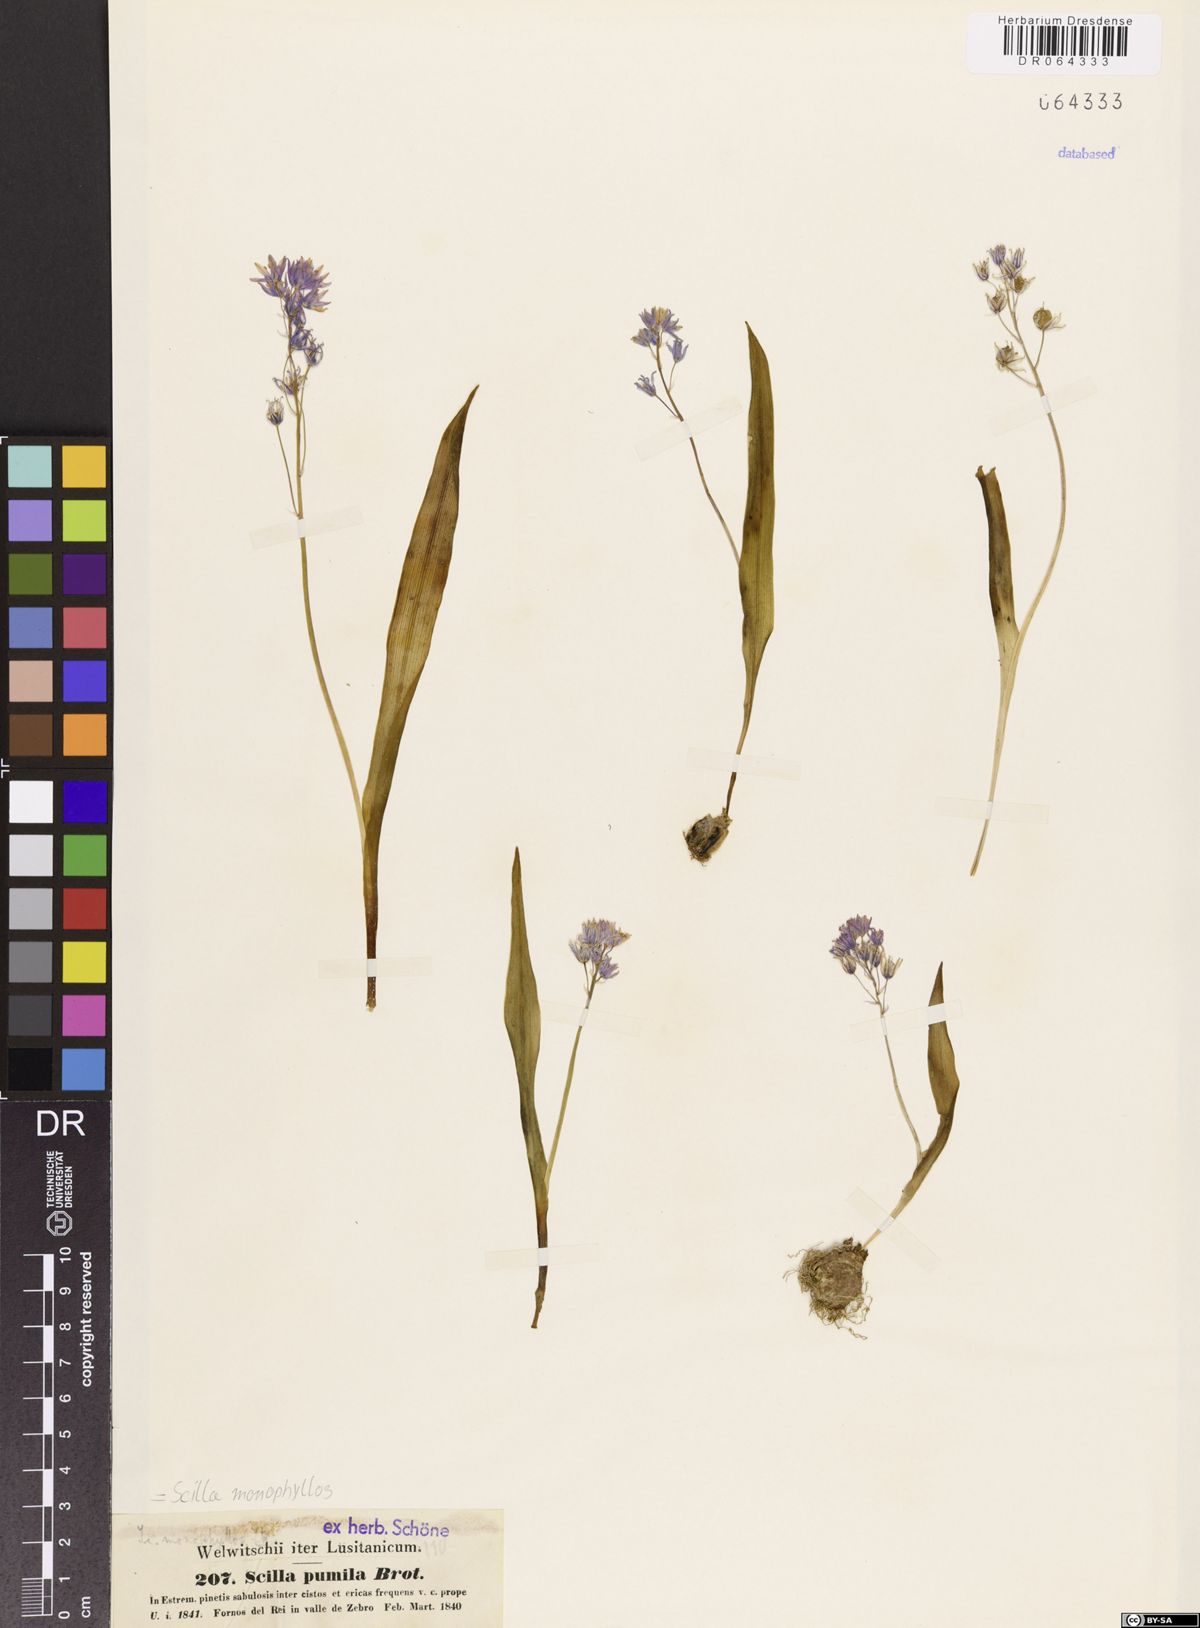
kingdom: Plantae
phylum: Tracheophyta
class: Liliopsida
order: Asparagales
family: Asparagaceae
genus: Scilla
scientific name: Scilla monophyllos
